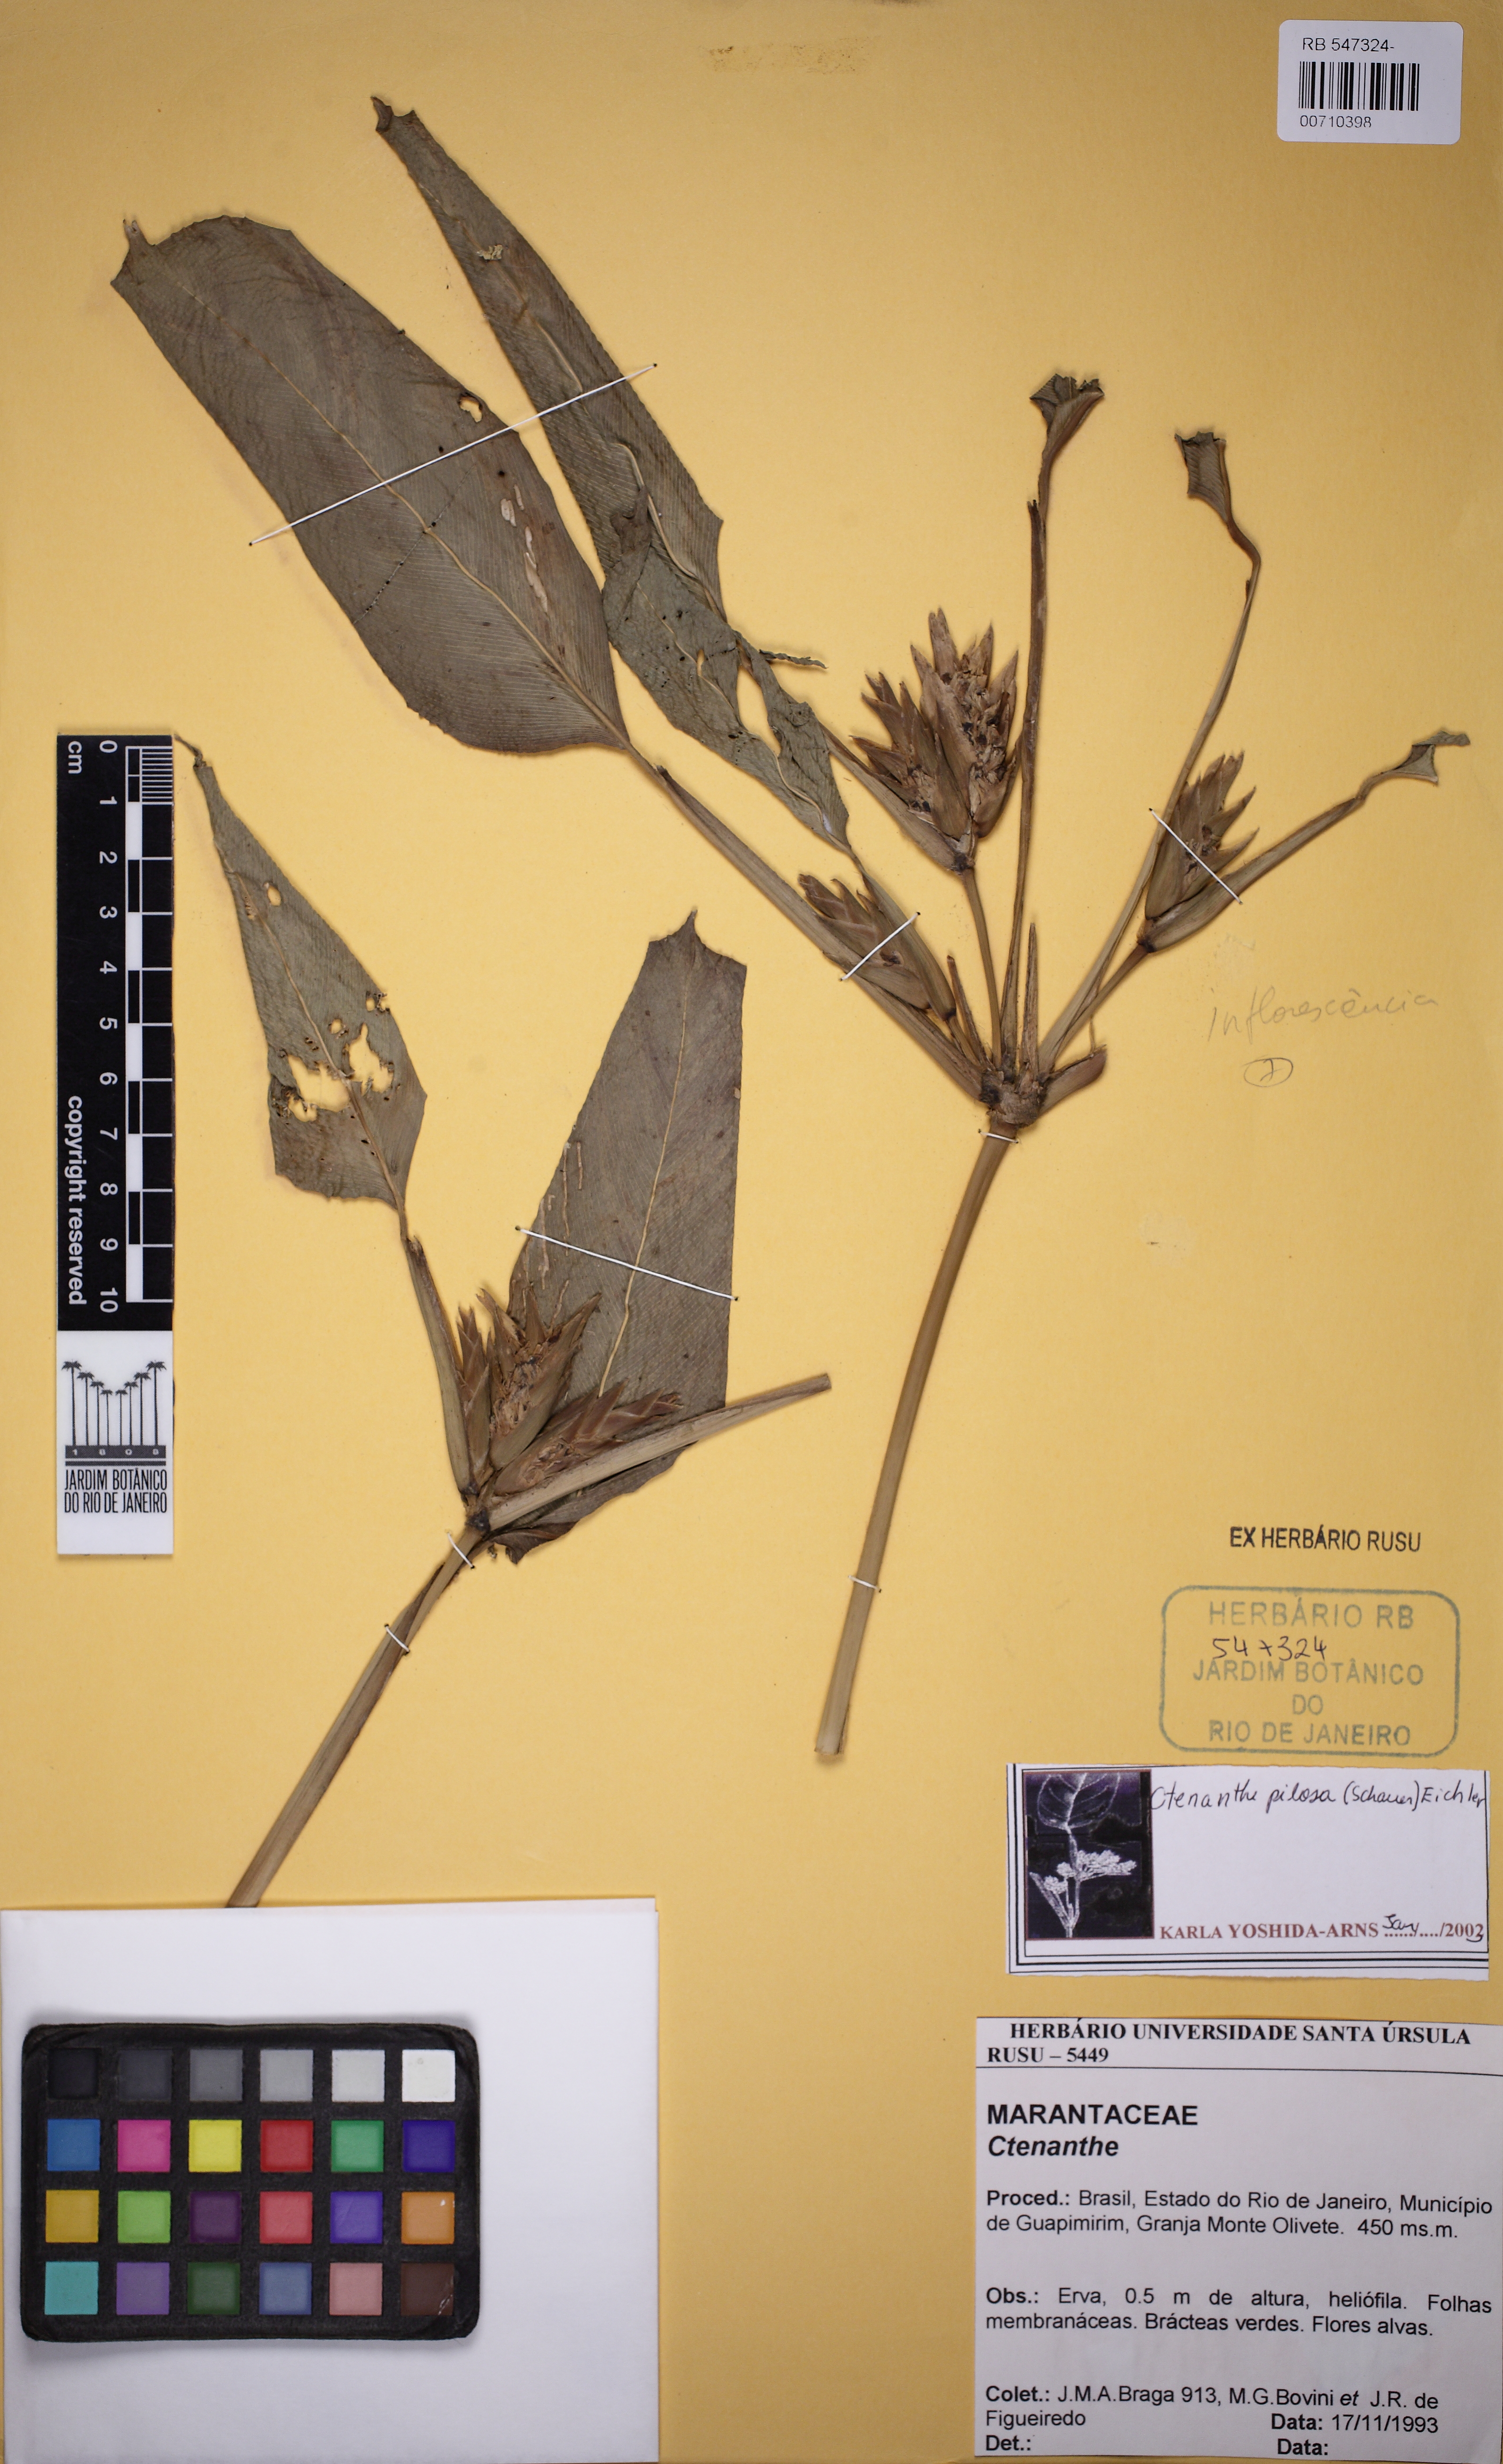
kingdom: Plantae
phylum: Tracheophyta
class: Liliopsida
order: Zingiberales
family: Marantaceae
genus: Ctenanthe
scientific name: Ctenanthe marantifolia
